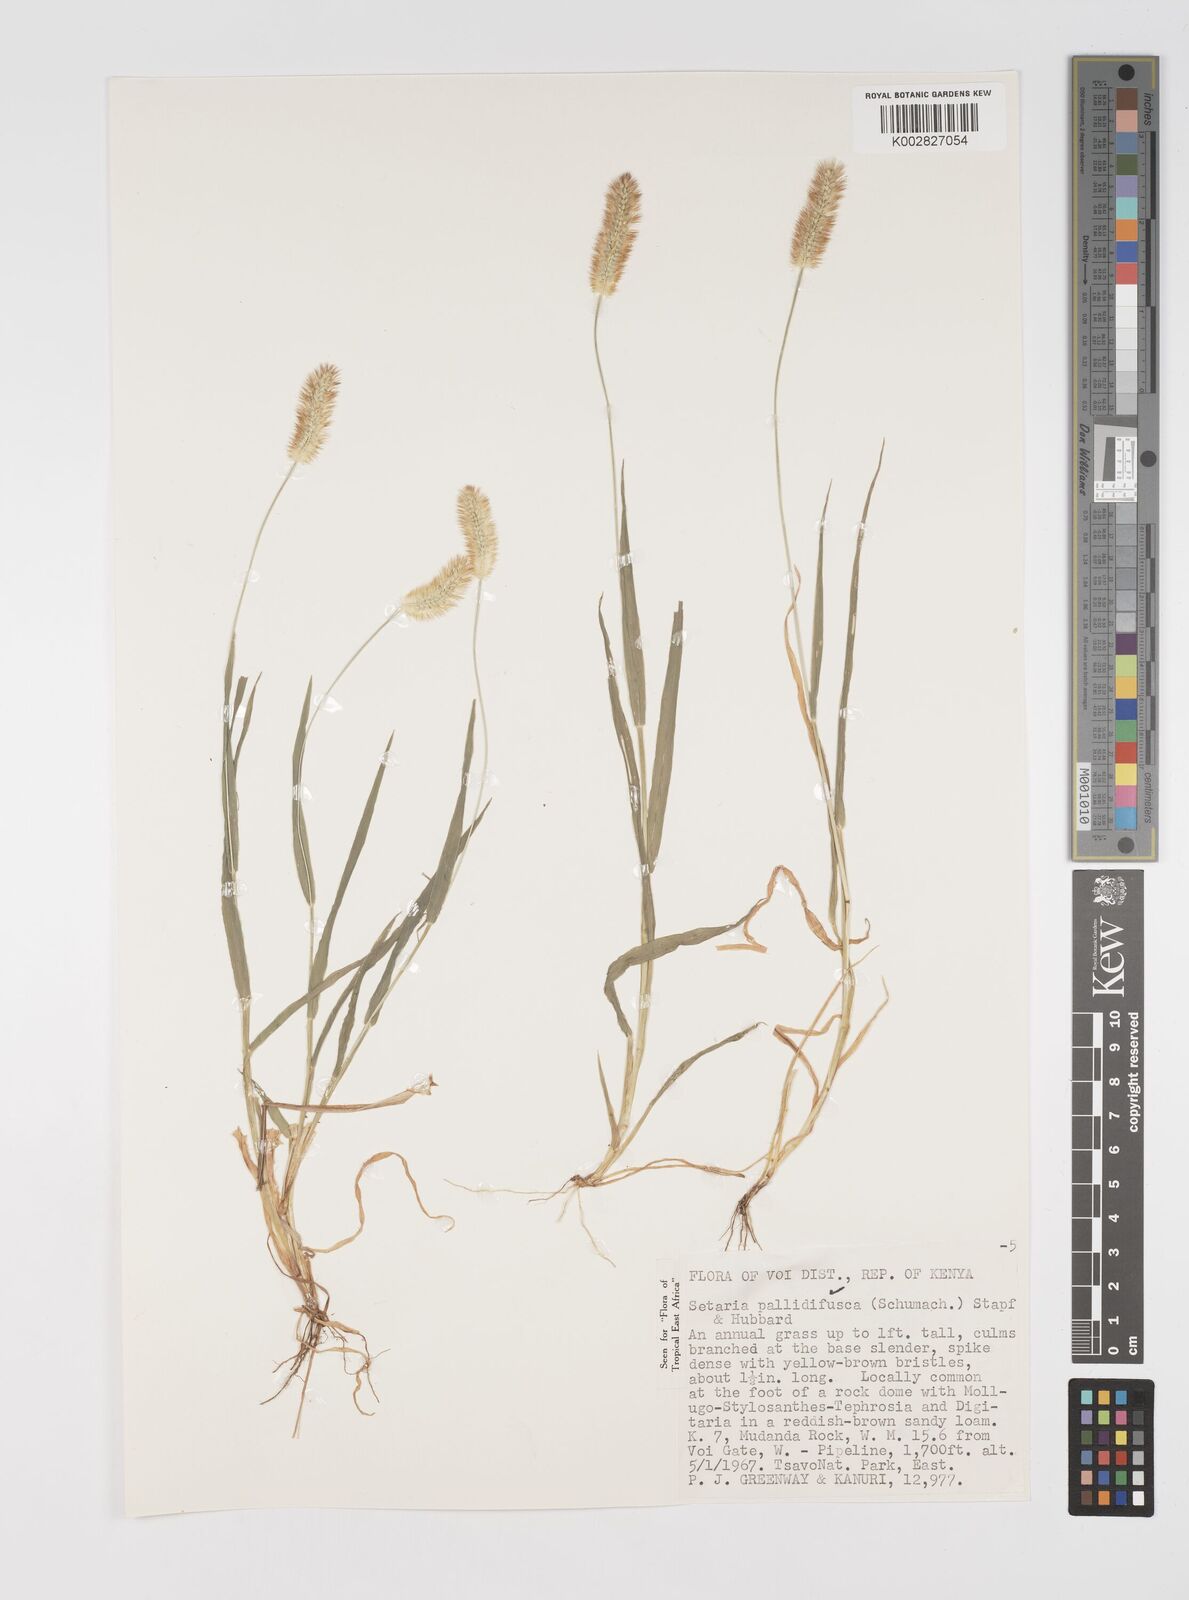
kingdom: Plantae
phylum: Tracheophyta
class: Liliopsida
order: Poales
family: Poaceae
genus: Setaria
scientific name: Setaria pumila
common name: Yellow bristle-grass
